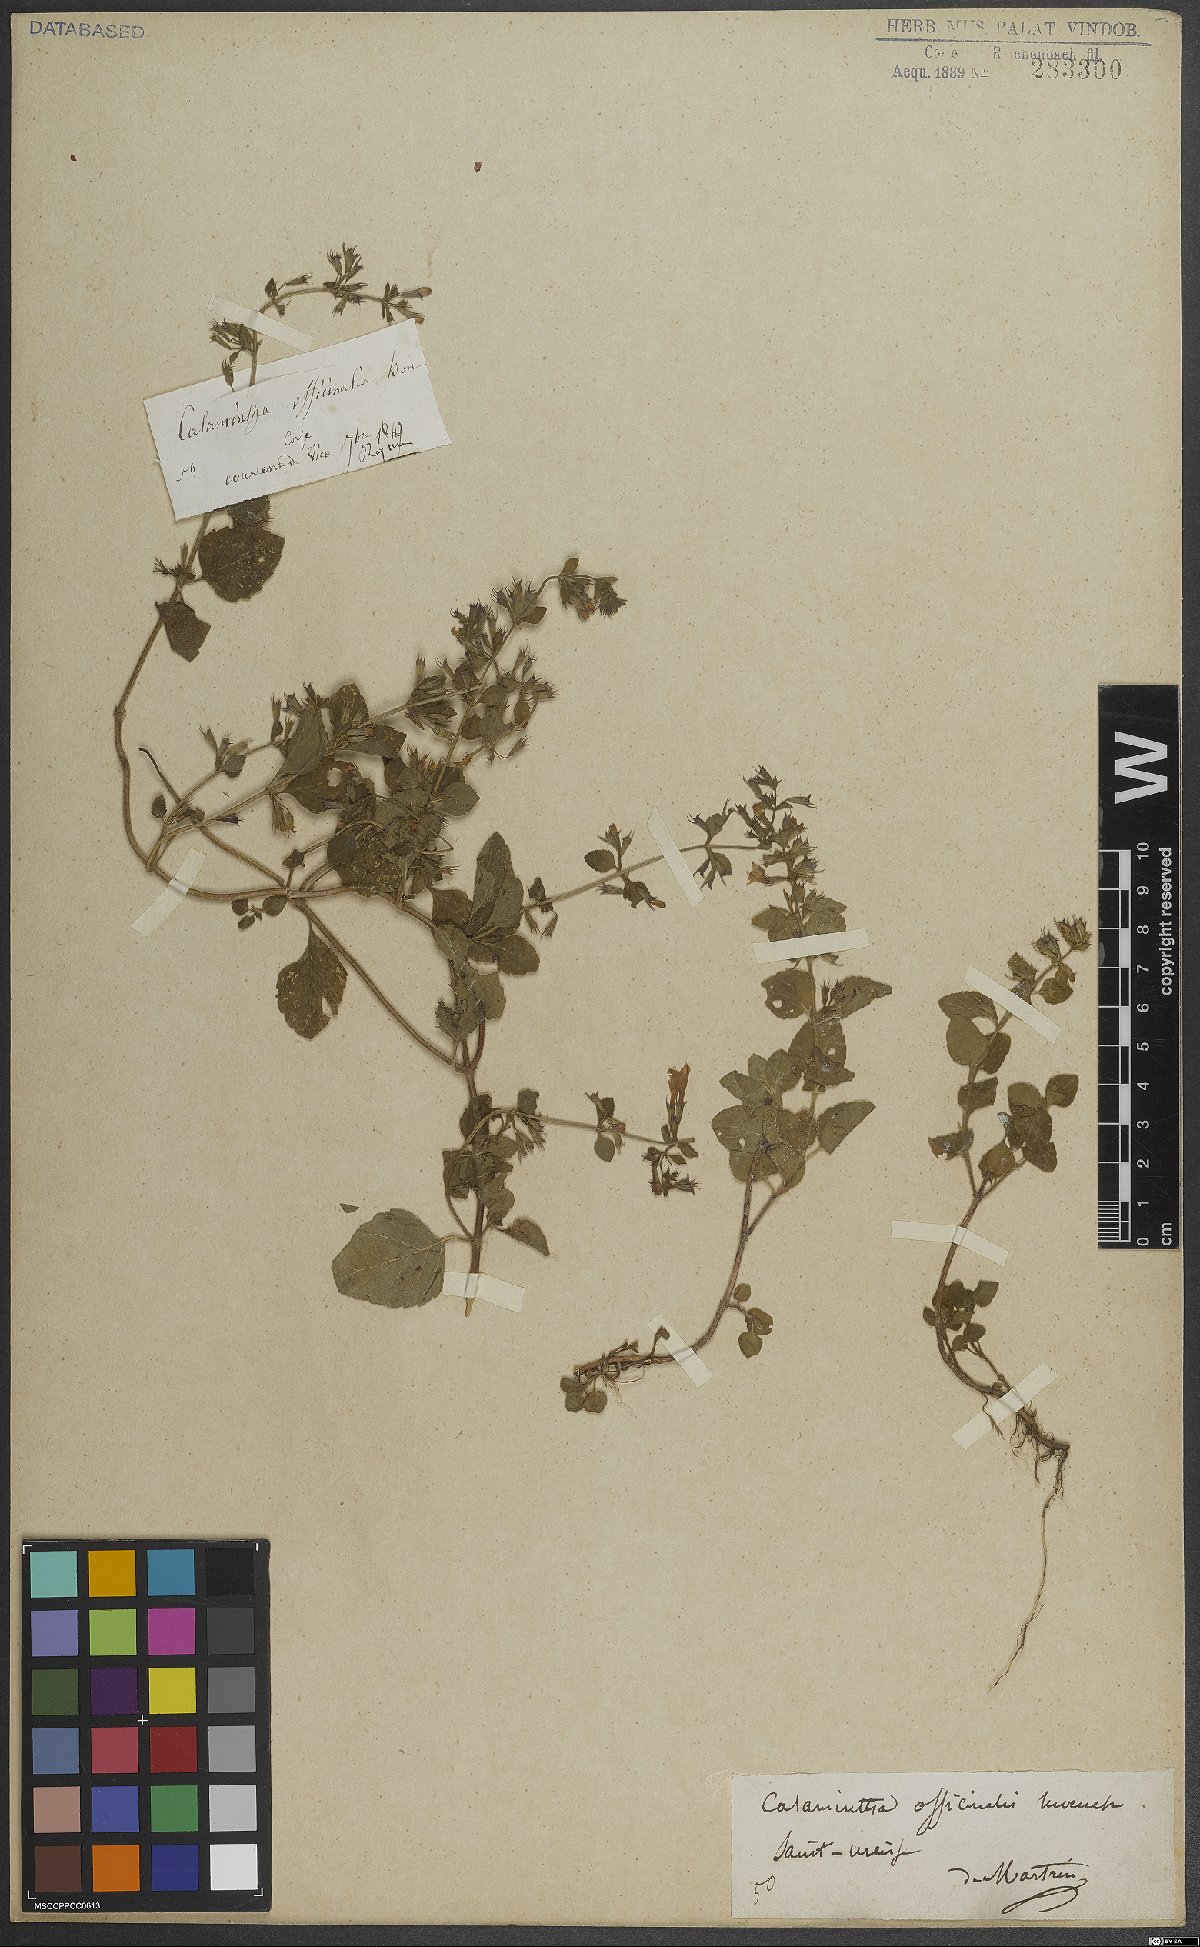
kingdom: Plantae
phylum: Tracheophyta
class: Magnoliopsida
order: Lamiales
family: Lamiaceae
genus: Clinopodium
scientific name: Clinopodium nepeta
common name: Lesser calamint
